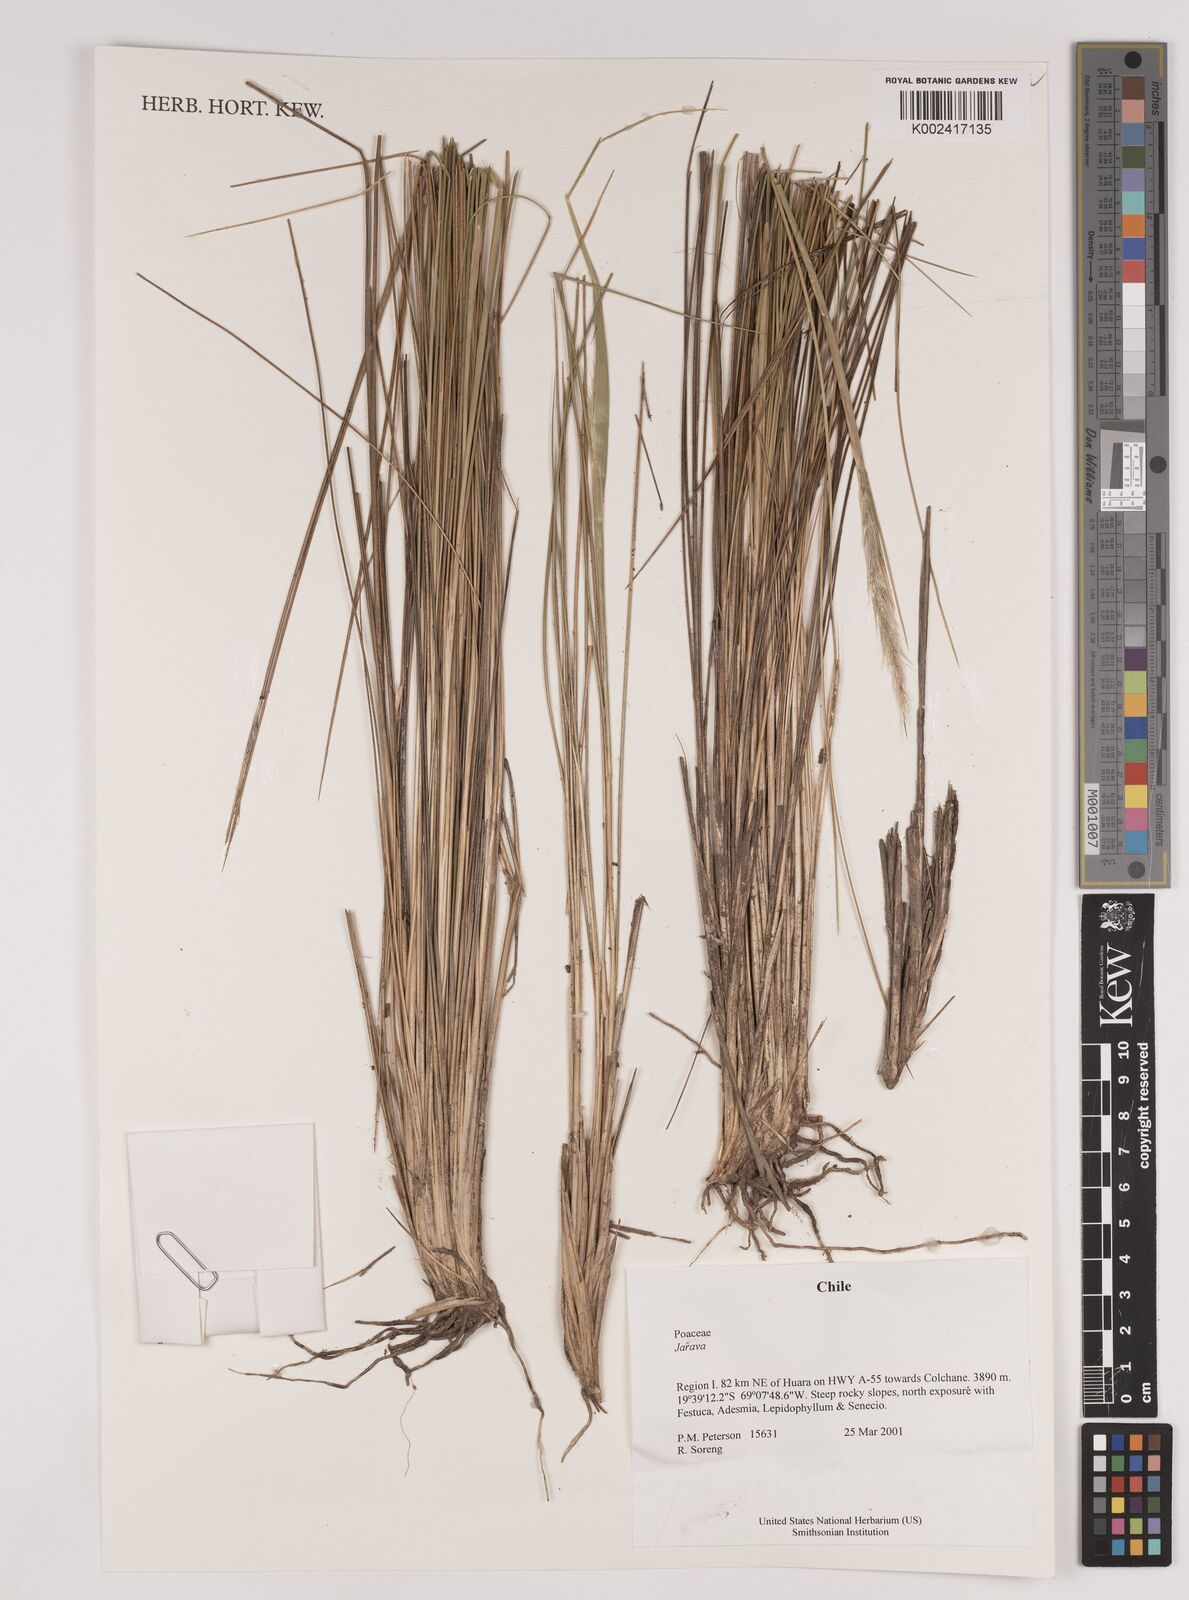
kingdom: Plantae
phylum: Tracheophyta
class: Liliopsida
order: Poales
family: Poaceae
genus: Stipa
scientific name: Stipa
